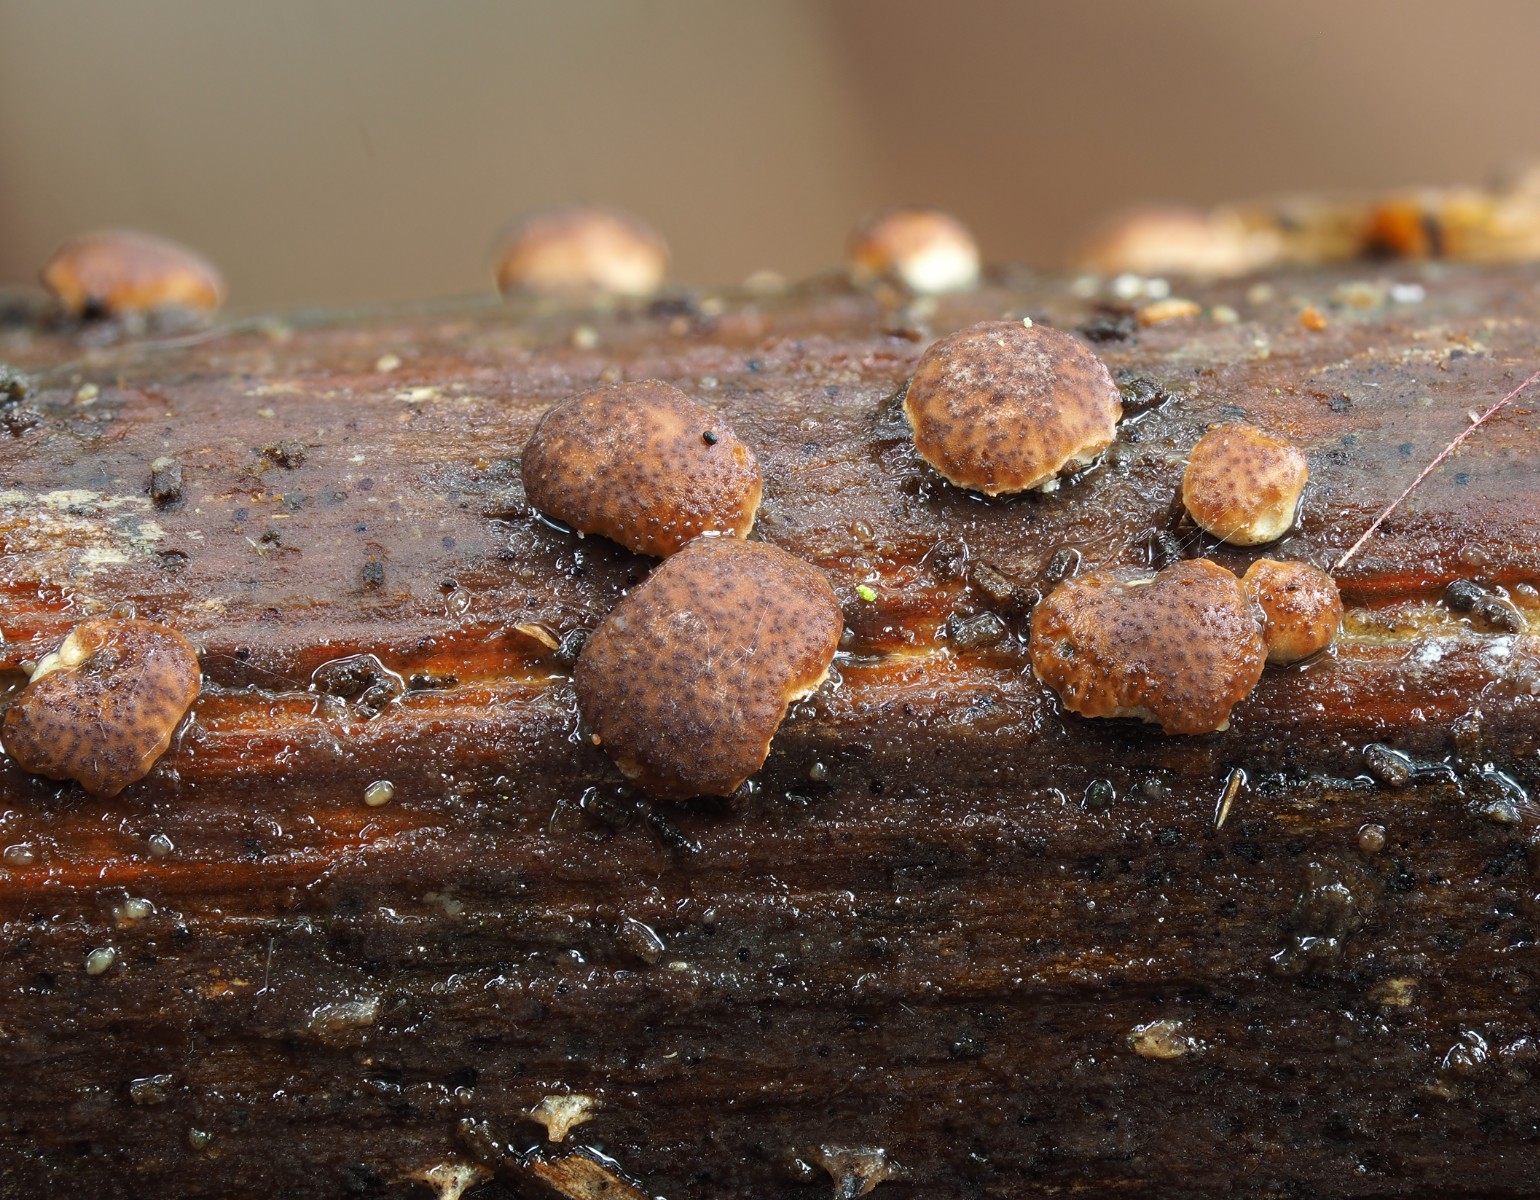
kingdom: Fungi
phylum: Ascomycota
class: Sordariomycetes
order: Hypocreales
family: Hypocreaceae
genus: Trichoderma
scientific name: Trichoderma crystalligenum
